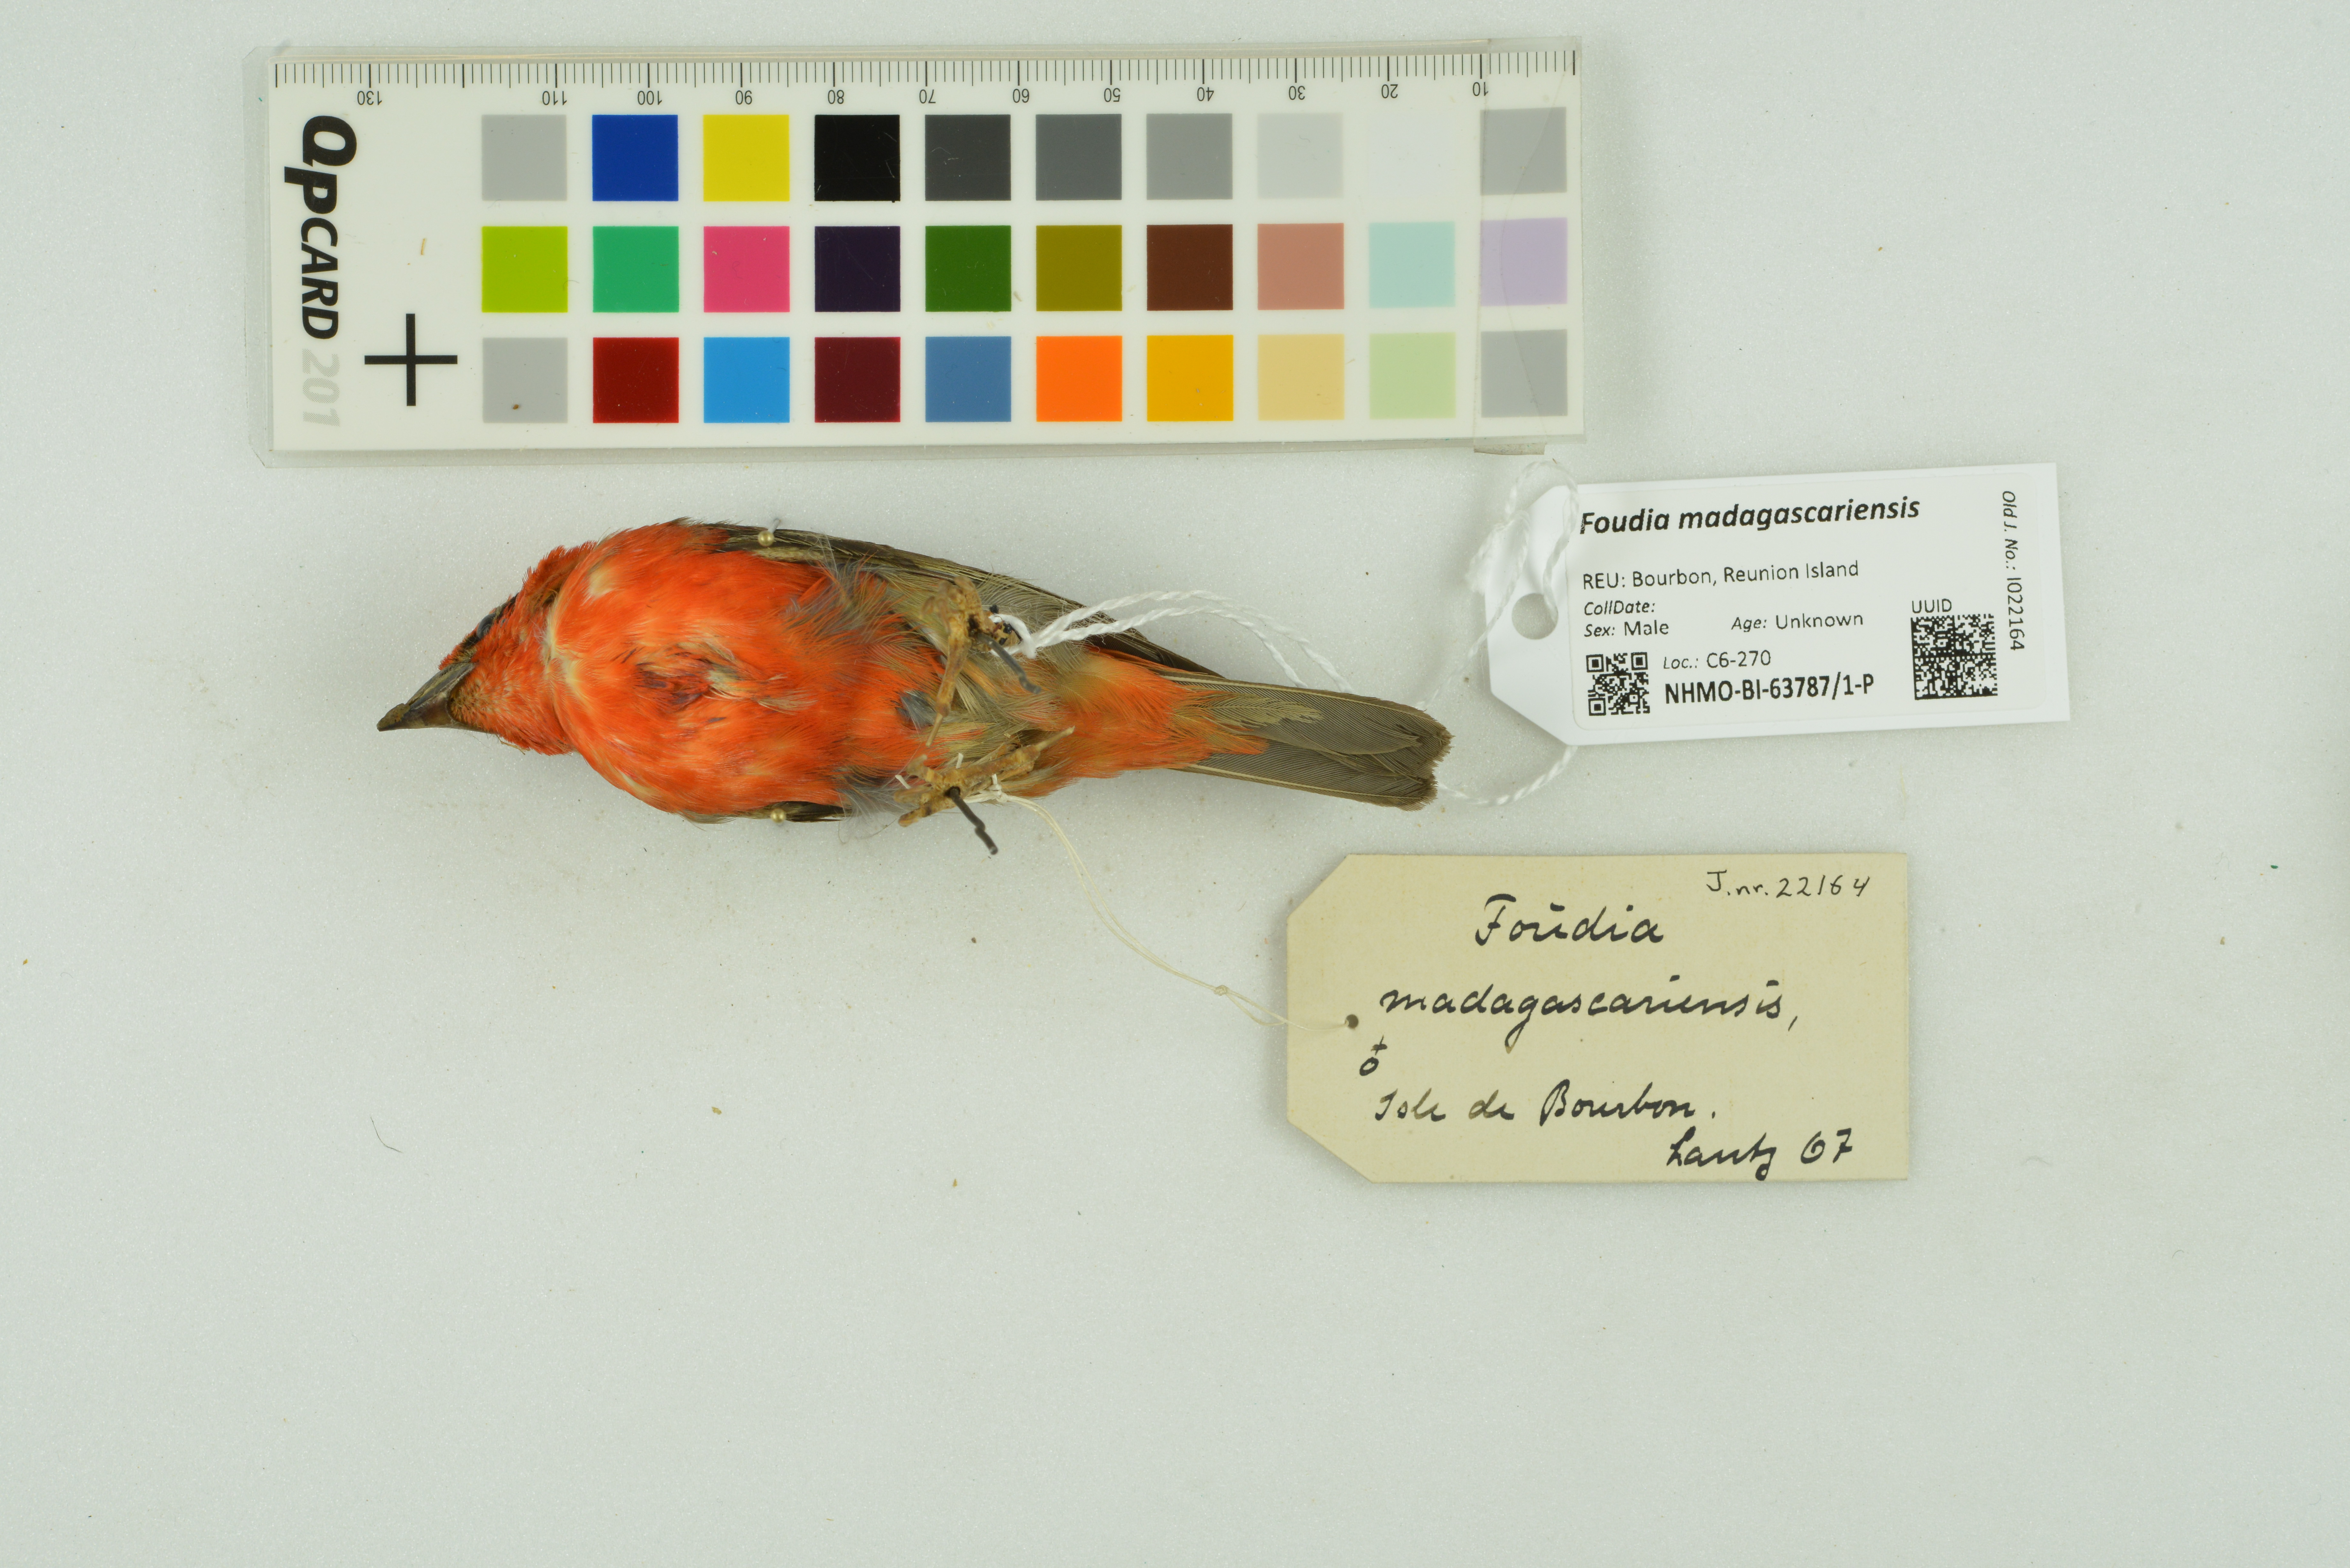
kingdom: Animalia
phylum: Chordata
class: Aves
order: Passeriformes
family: Ploceidae
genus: Foudia
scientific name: Foudia madagascariensis
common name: Red fody
